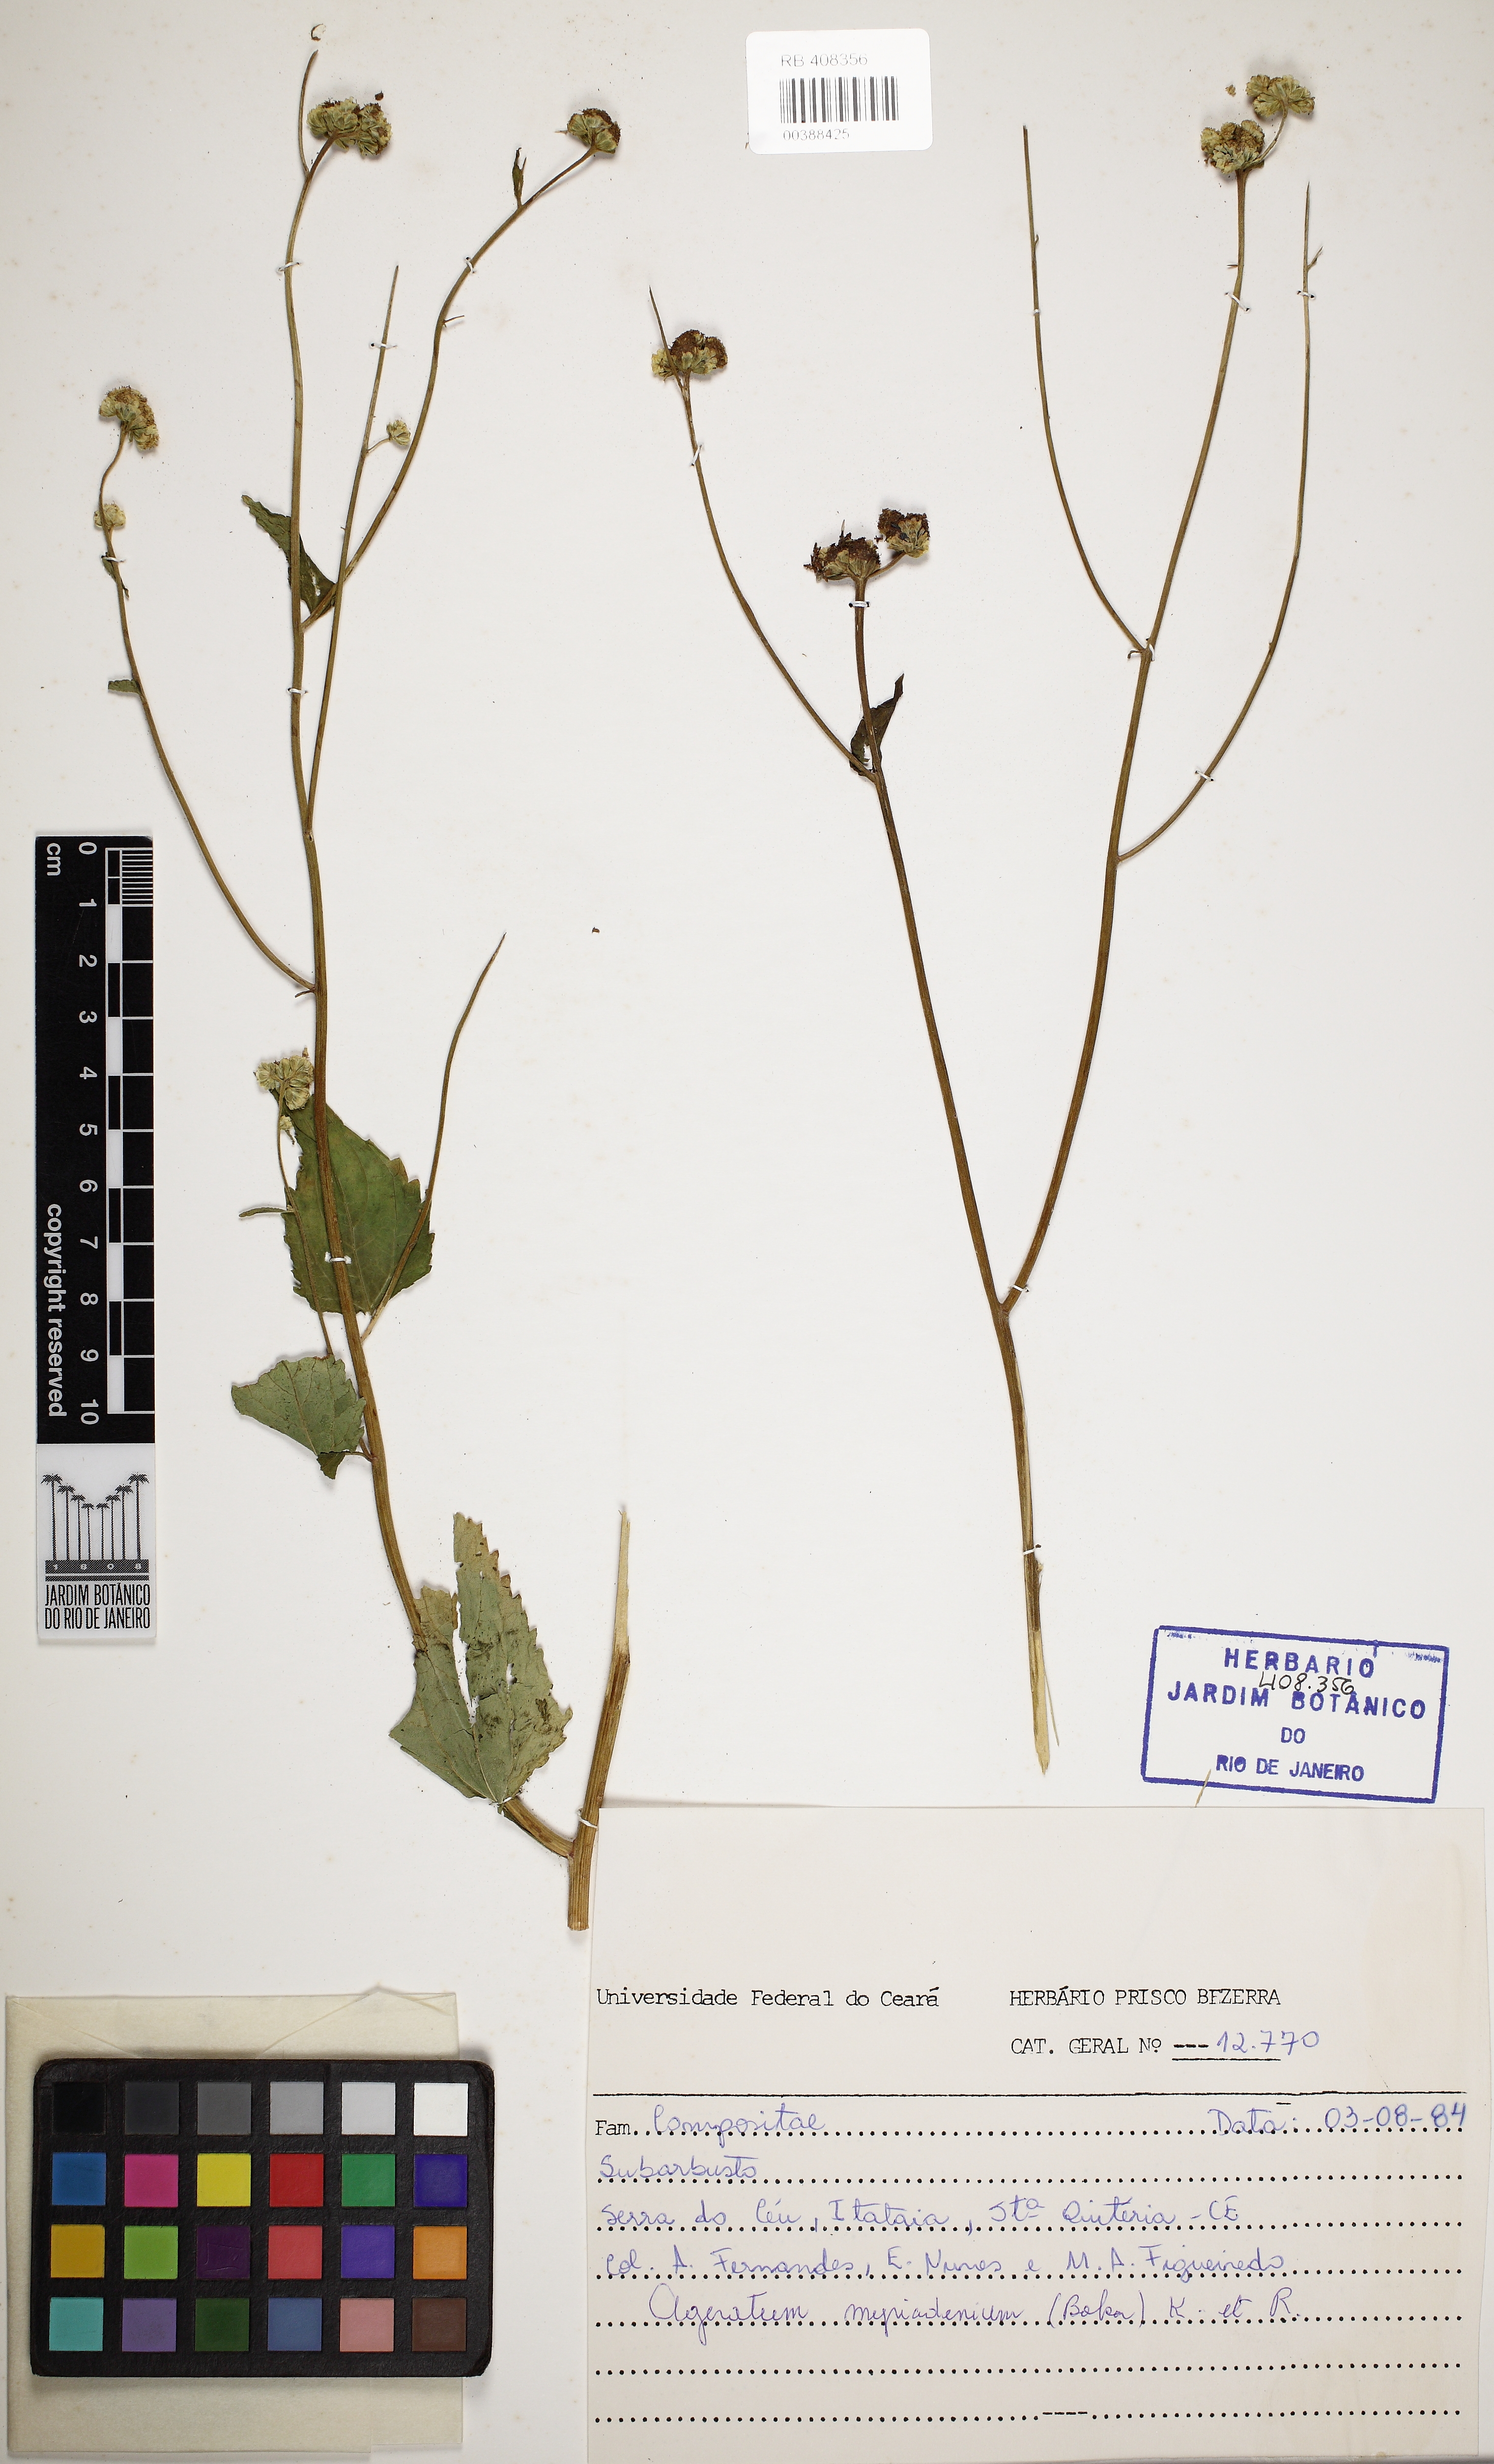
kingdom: Plantae
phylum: Tracheophyta
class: Magnoliopsida
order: Asterales
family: Asteraceae
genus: Ageratum
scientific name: Ageratum myriadenium
